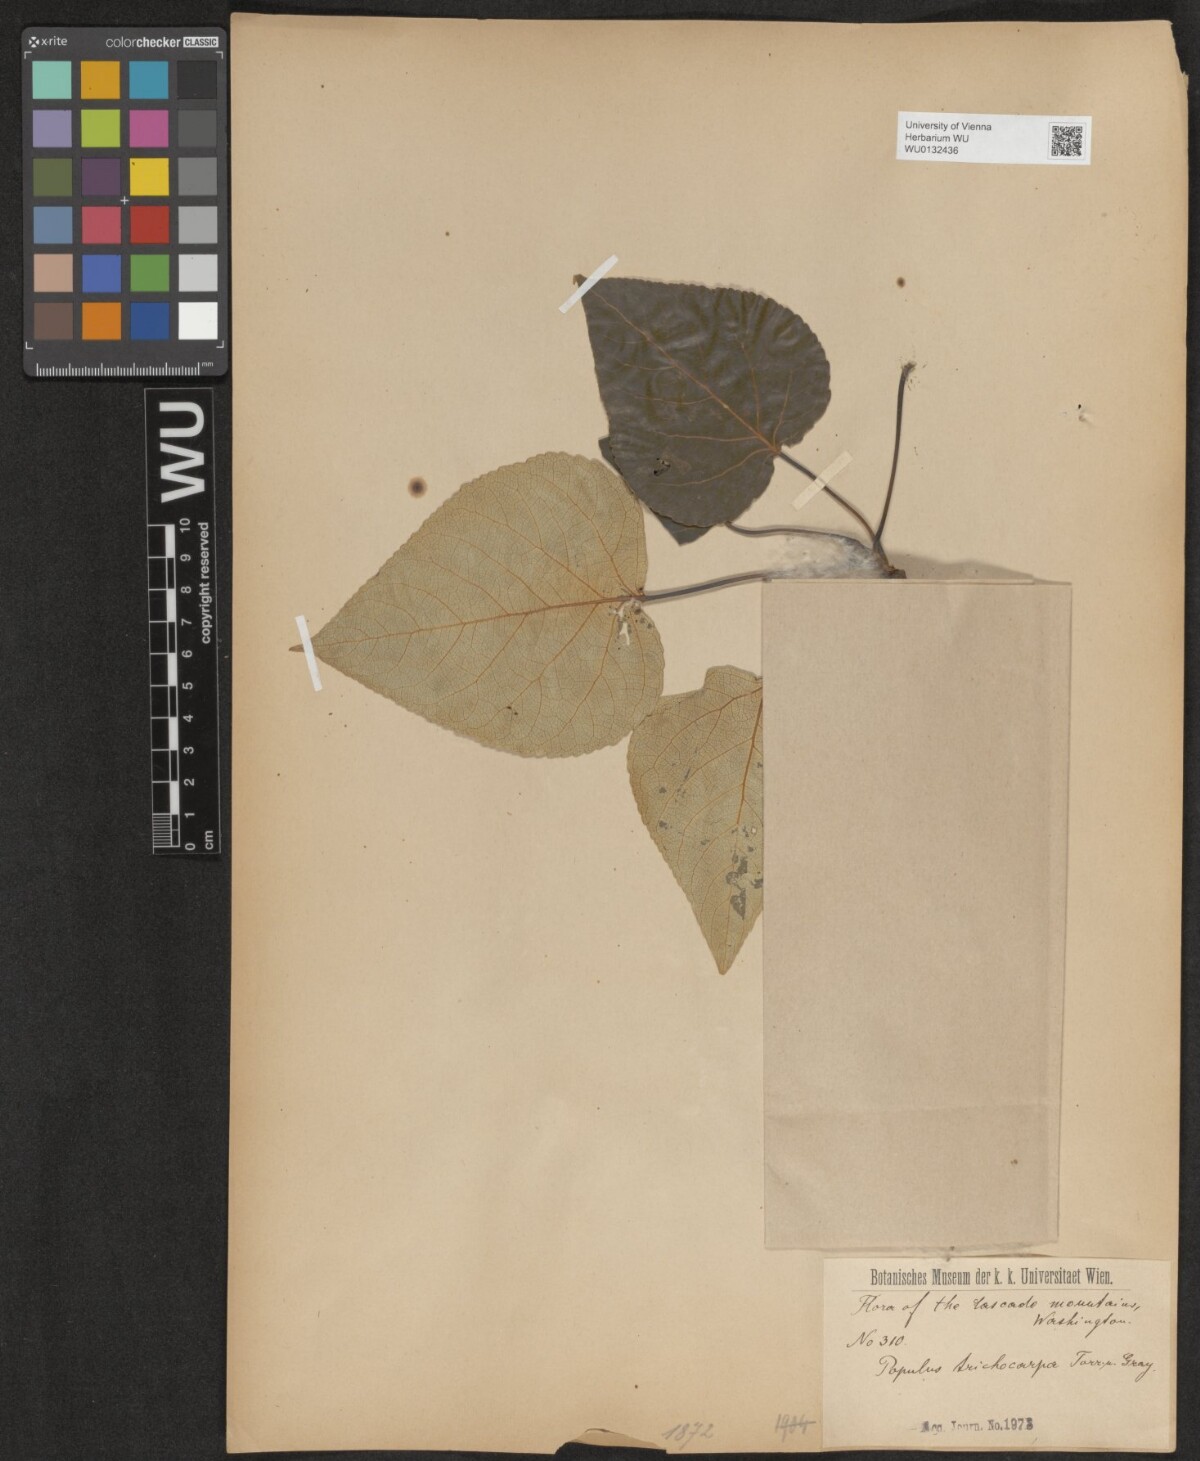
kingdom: Plantae
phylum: Tracheophyta
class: Magnoliopsida
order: Malpighiales
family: Salicaceae
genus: Populus
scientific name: Populus trichocarpa
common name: Black cottonwood
